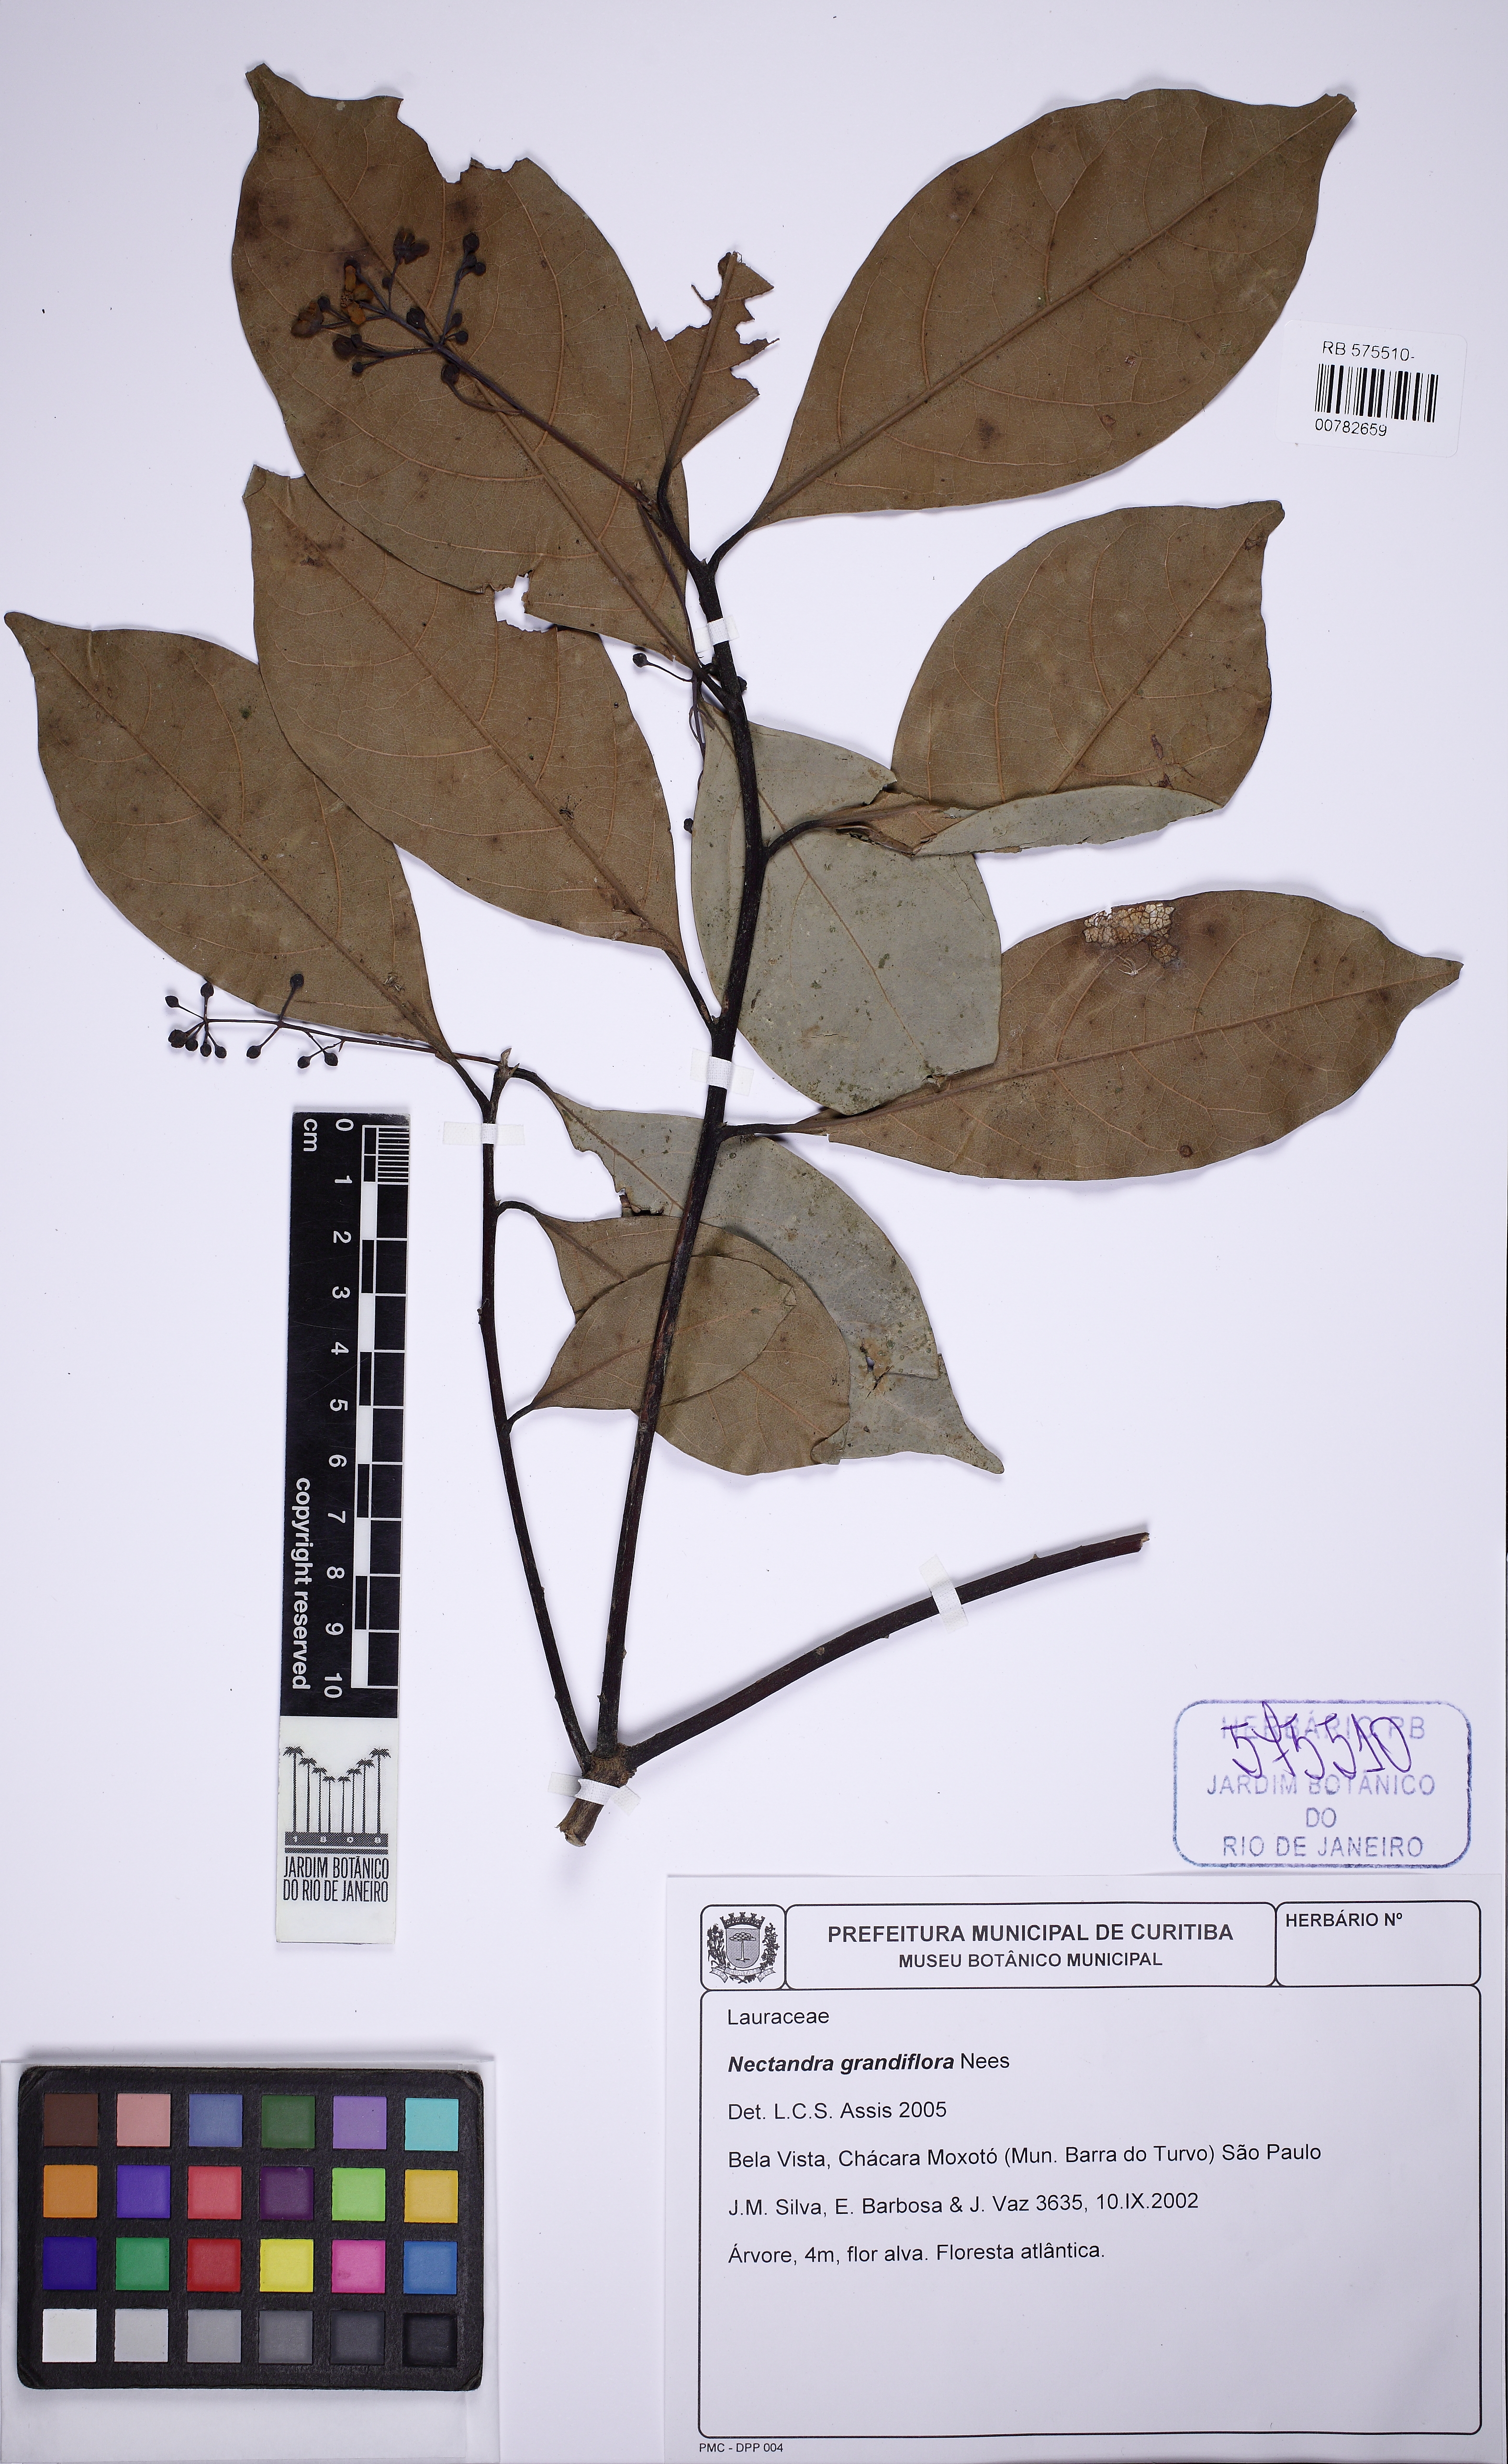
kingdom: Plantae
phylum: Tracheophyta
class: Magnoliopsida
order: Laurales
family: Lauraceae
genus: Nectandra
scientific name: Nectandra grandiflora
